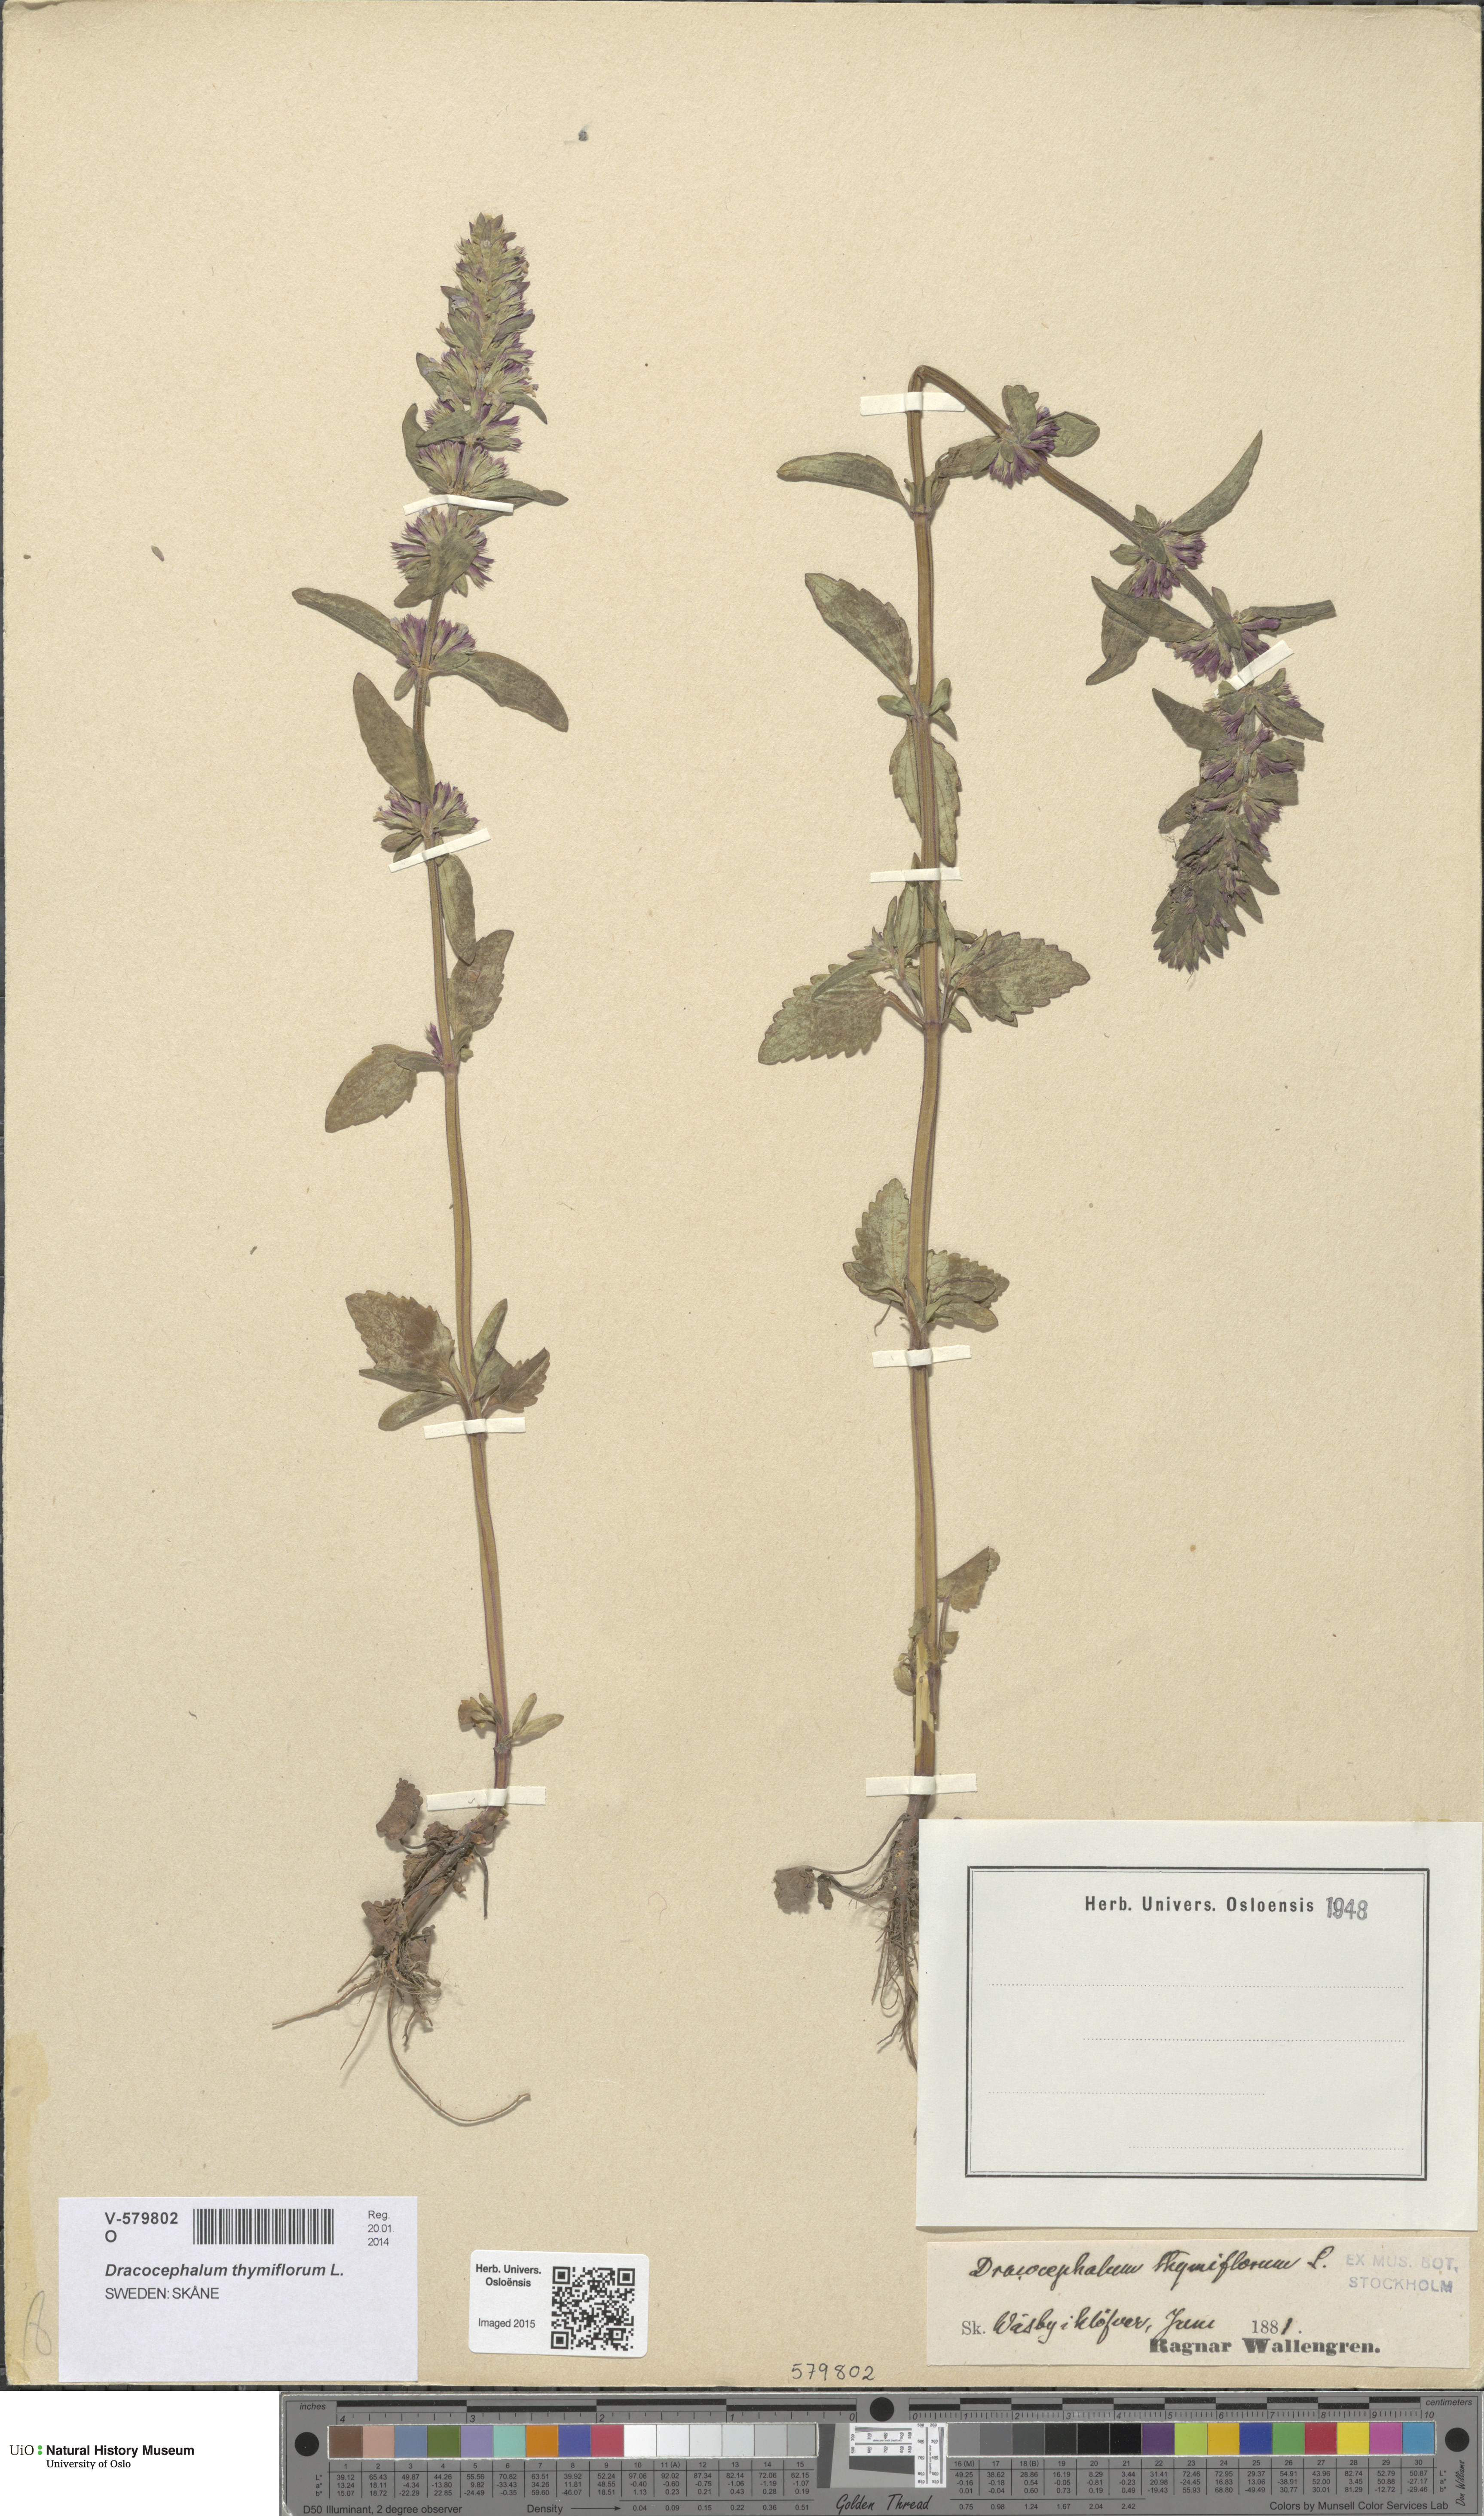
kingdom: Plantae
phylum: Tracheophyta
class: Magnoliopsida
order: Lamiales
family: Lamiaceae
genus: Dracocephalum
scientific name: Dracocephalum thymiflorum
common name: Thymeleaf dragonhead
